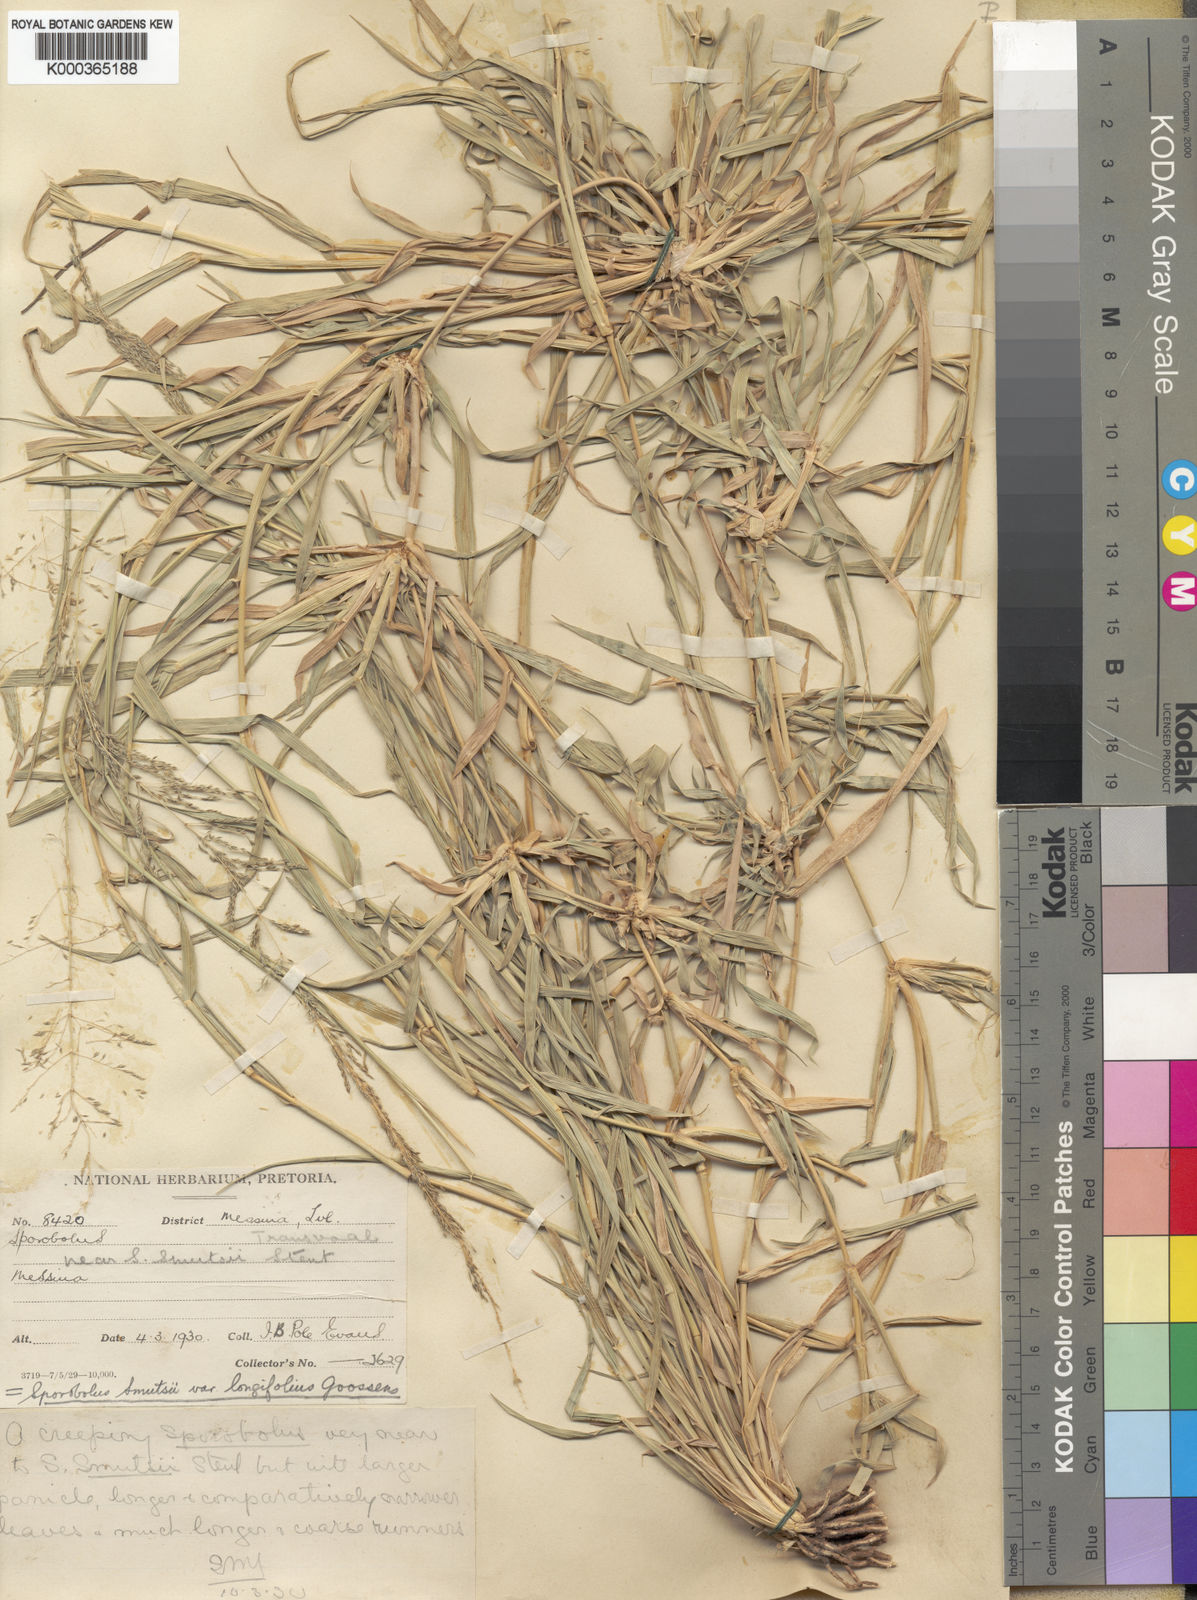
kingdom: Plantae
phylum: Tracheophyta
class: Liliopsida
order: Poales
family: Poaceae
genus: Sporobolus
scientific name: Sporobolus ioclados
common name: Pan dropseed
